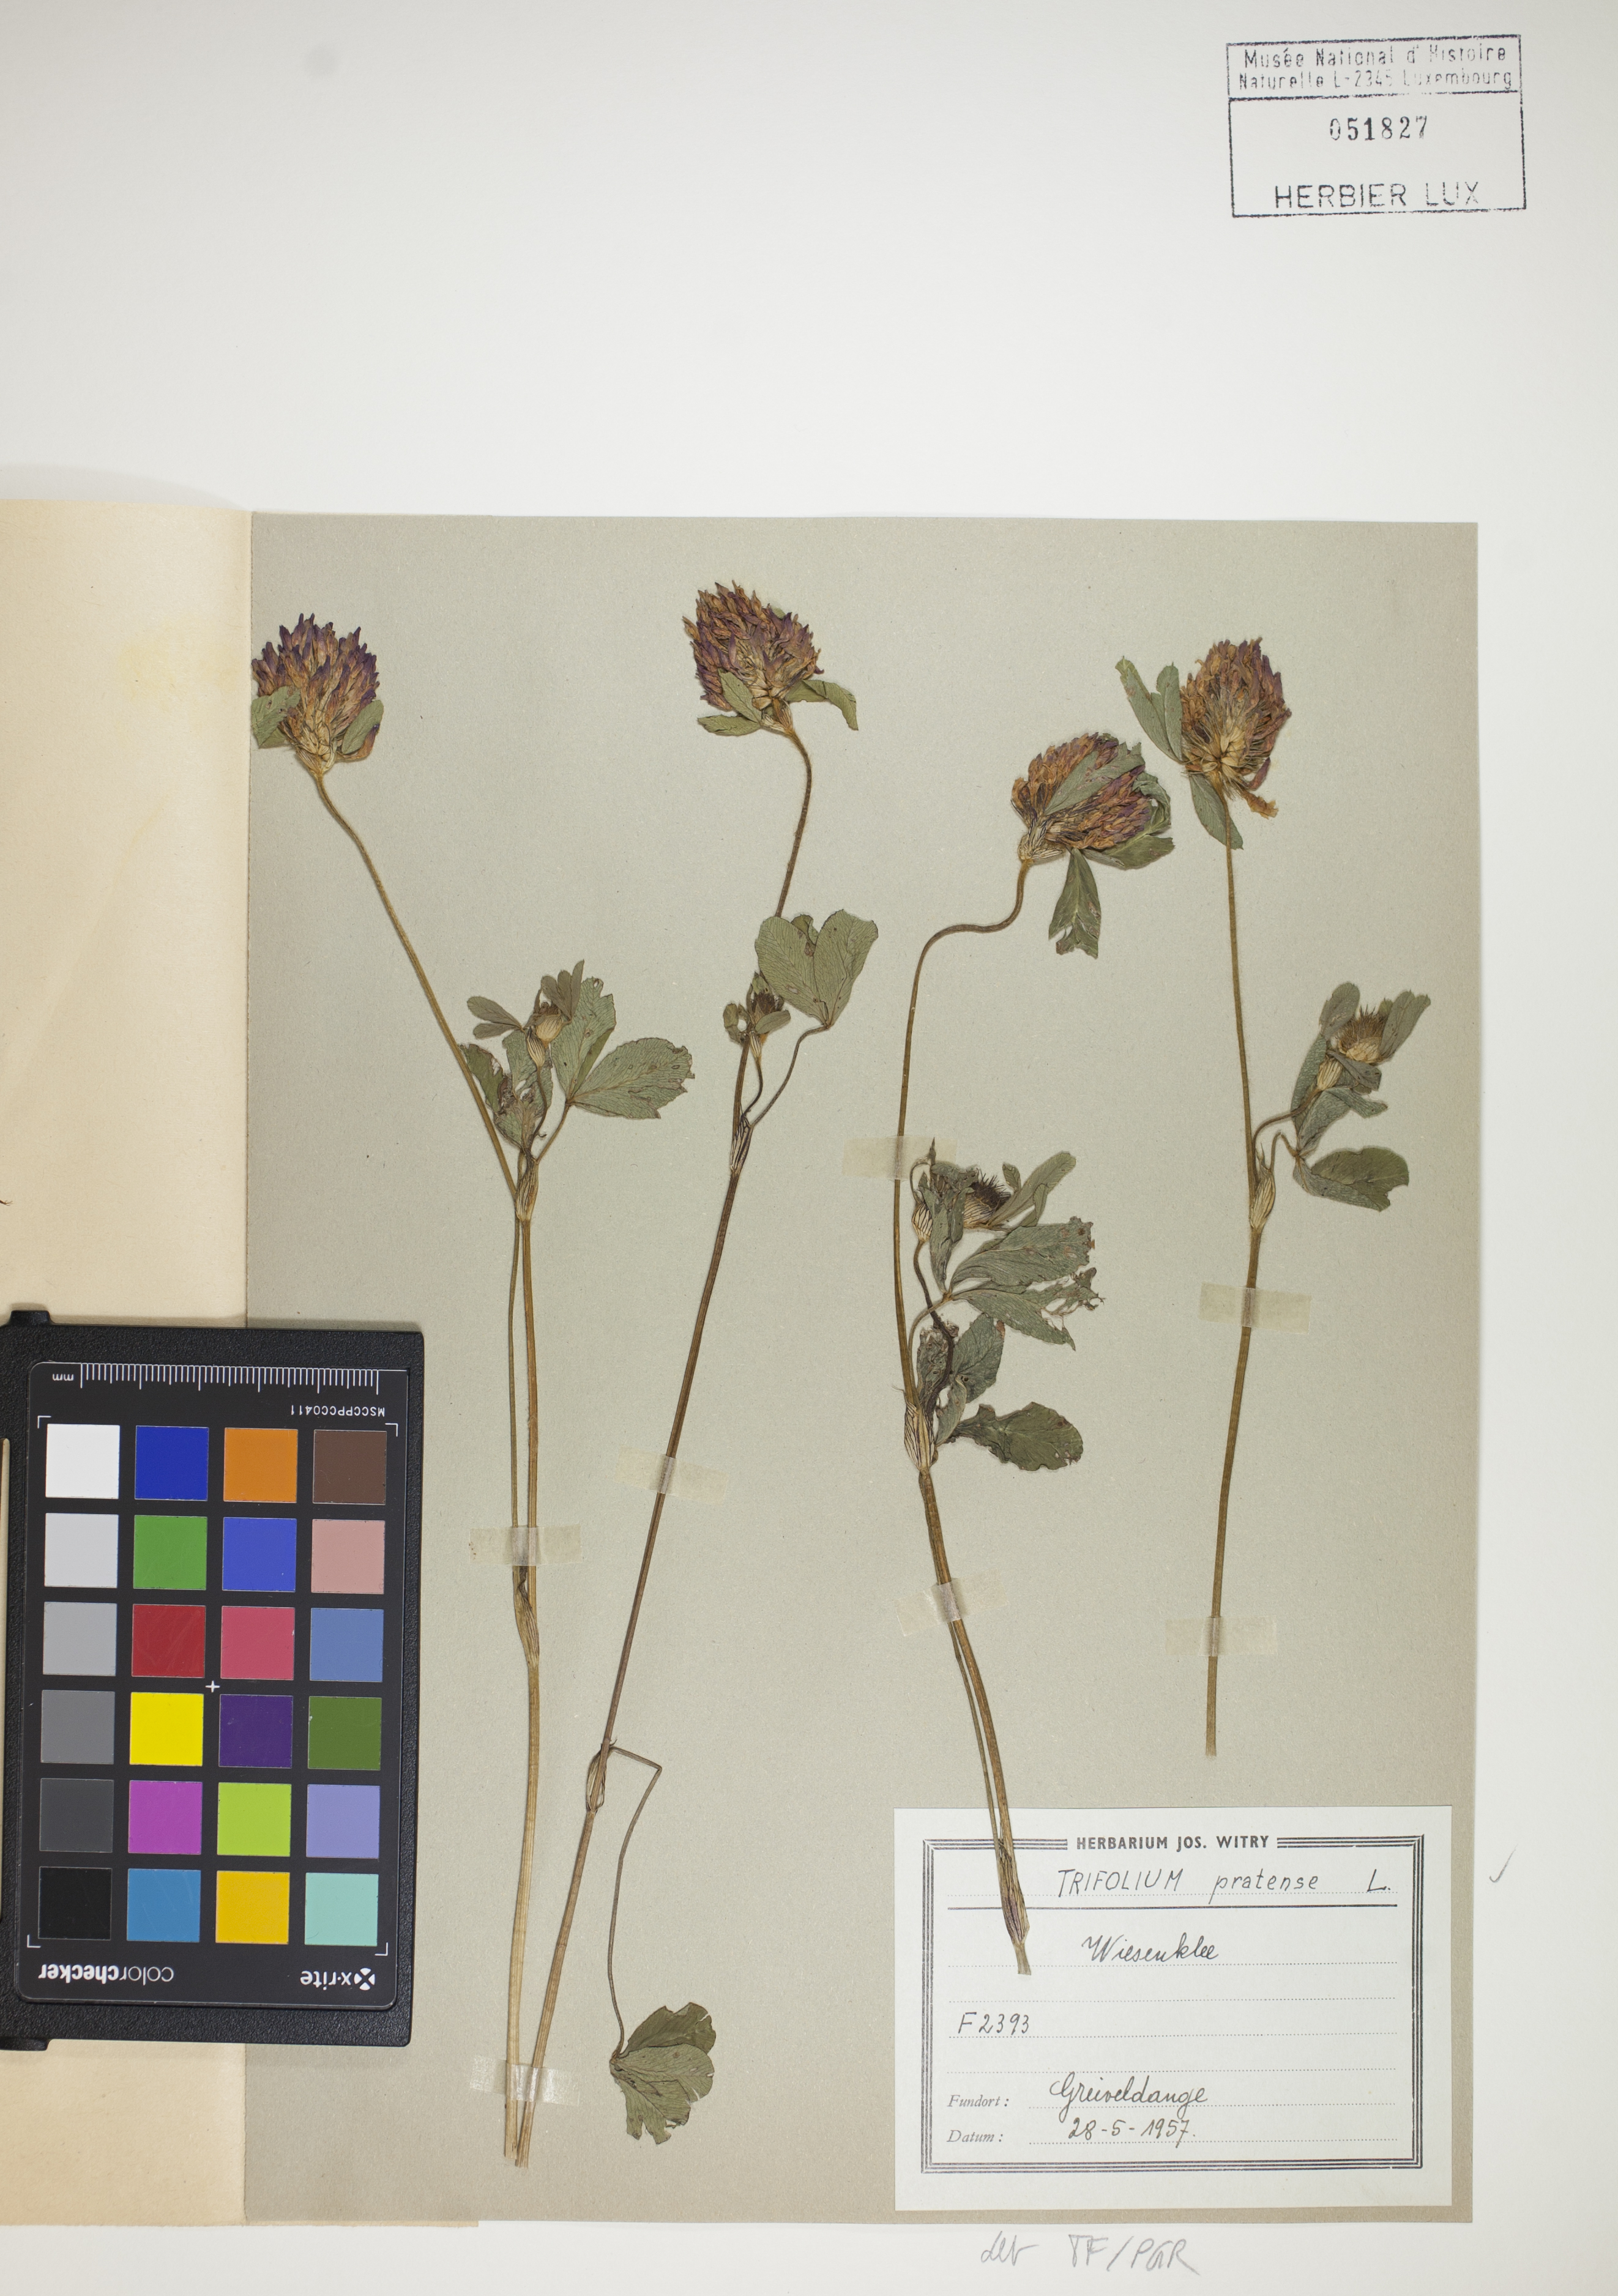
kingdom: Plantae
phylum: Tracheophyta
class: Magnoliopsida
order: Fabales
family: Fabaceae
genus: Trifolium
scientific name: Trifolium pratense
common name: Red clover
